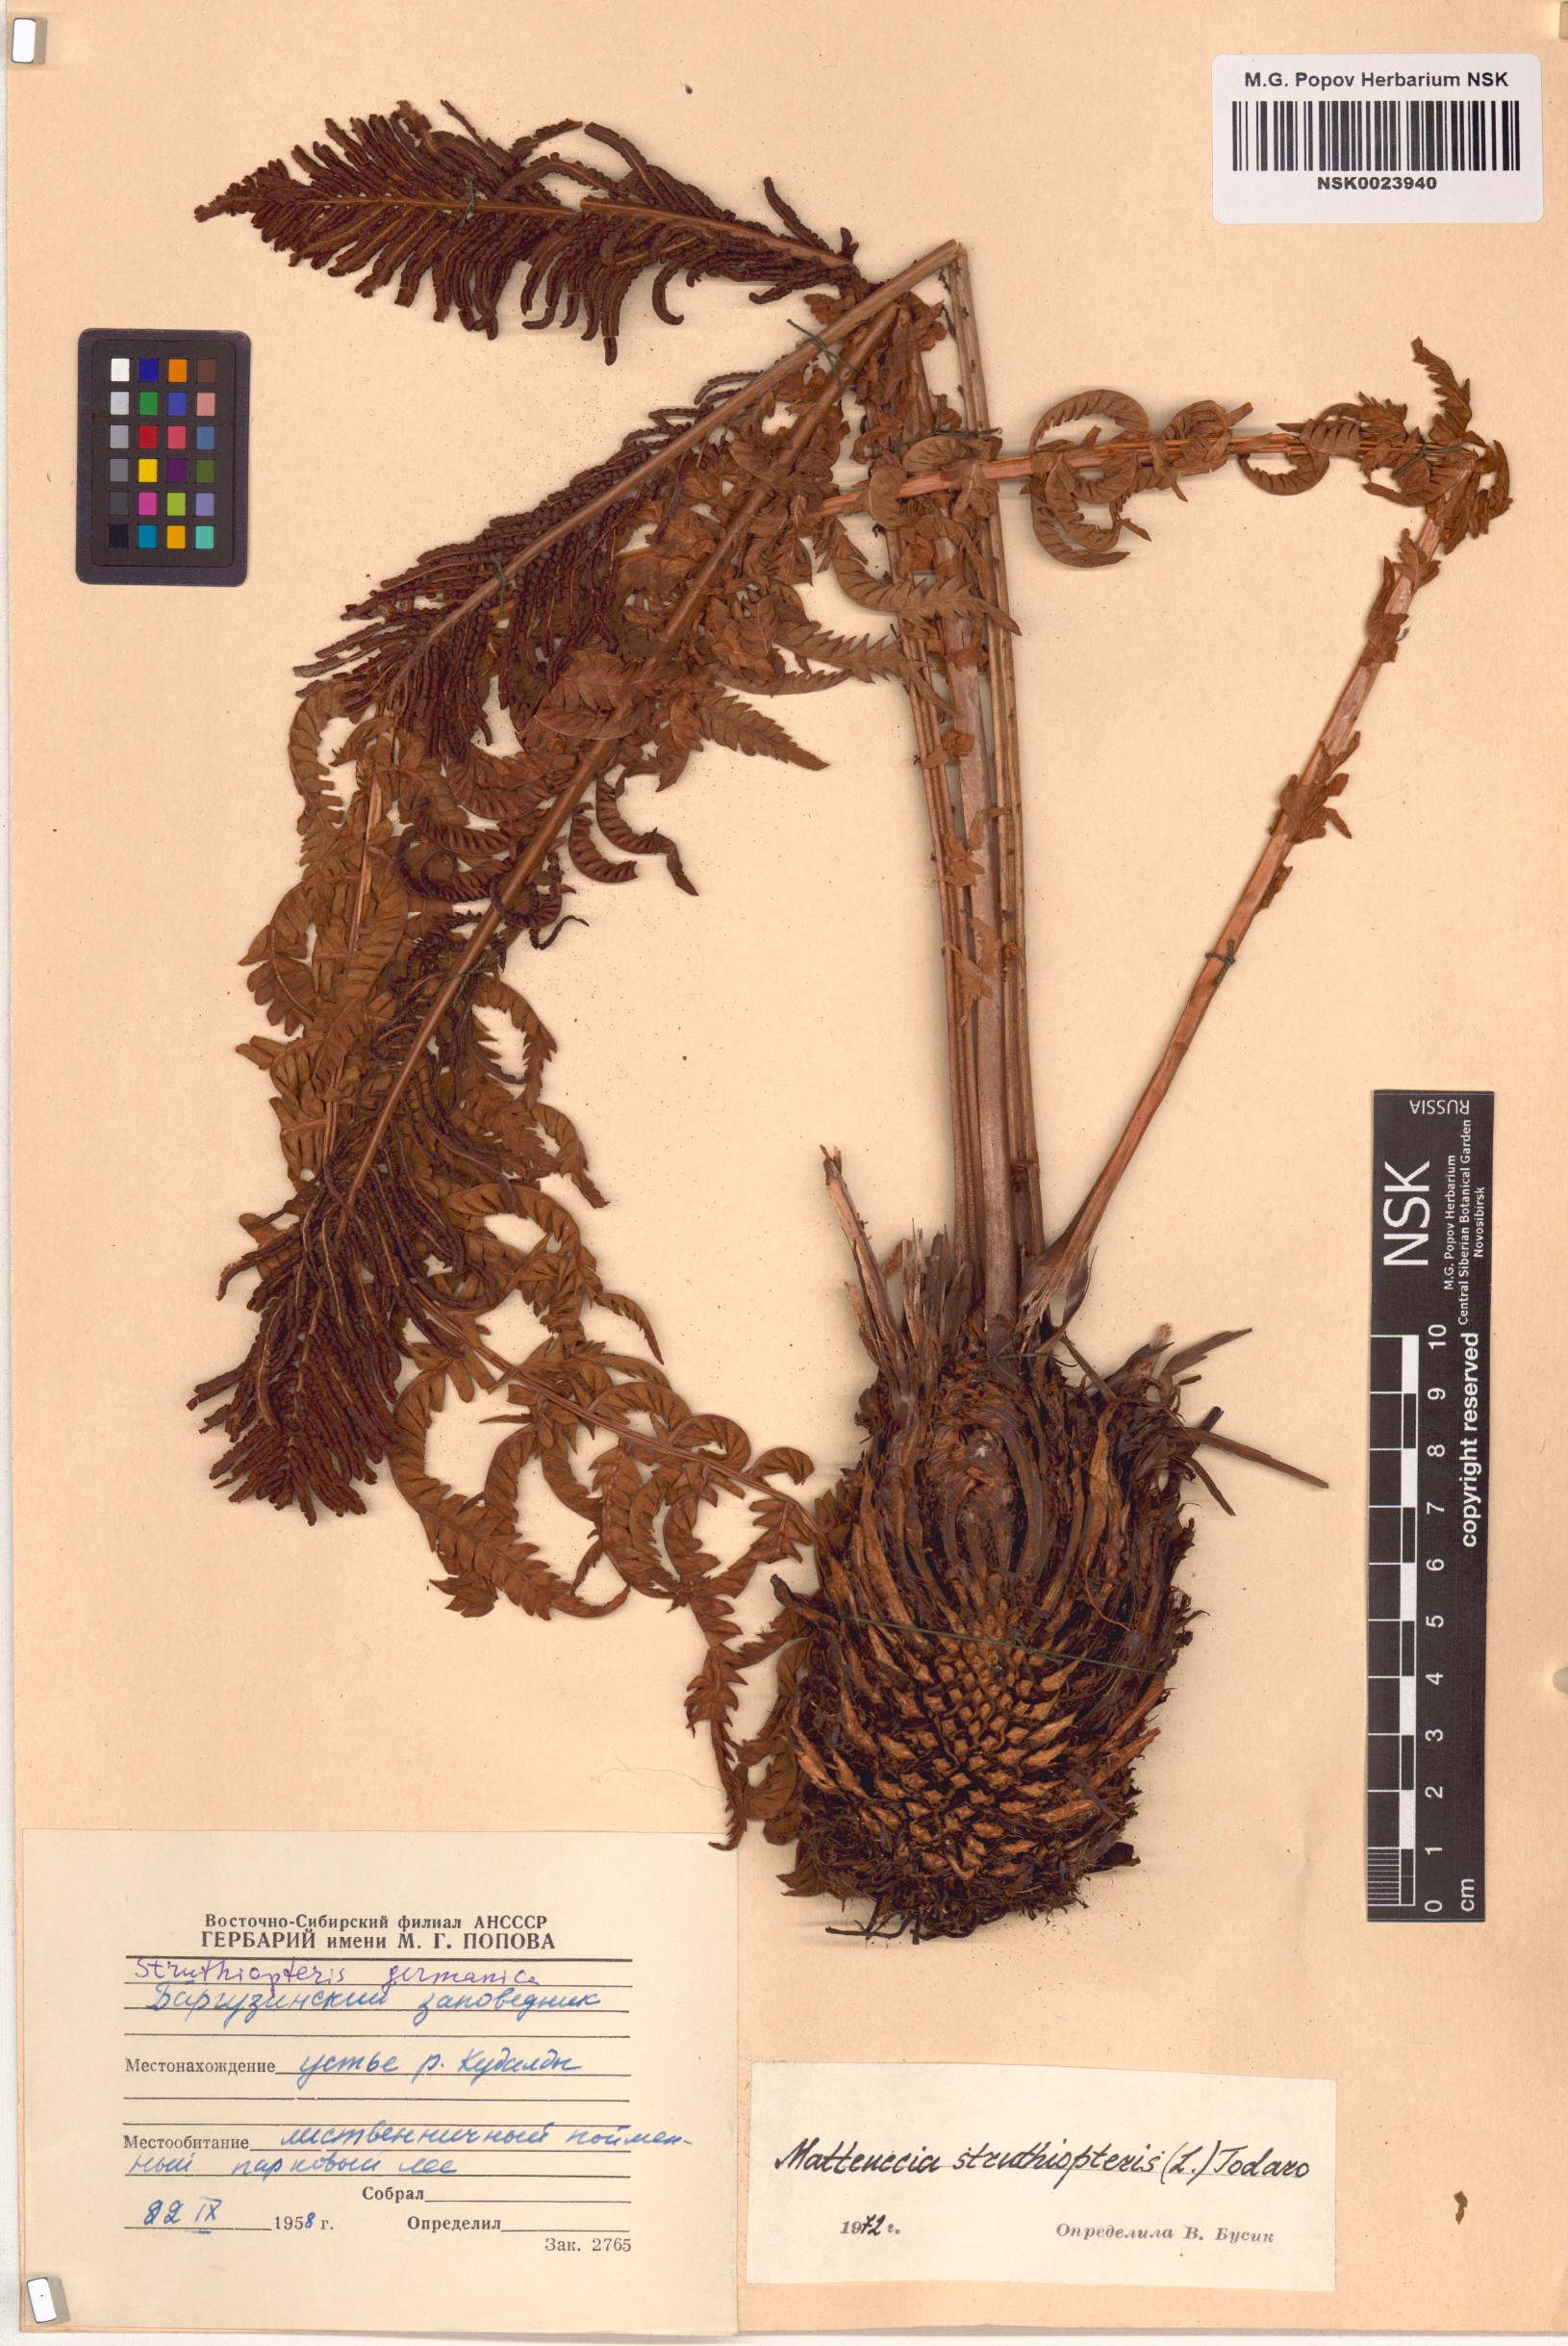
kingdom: Plantae
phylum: Tracheophyta
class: Polypodiopsida
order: Polypodiales
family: Onocleaceae
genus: Matteuccia
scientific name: Matteuccia struthiopteris
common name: Ostrich fern
